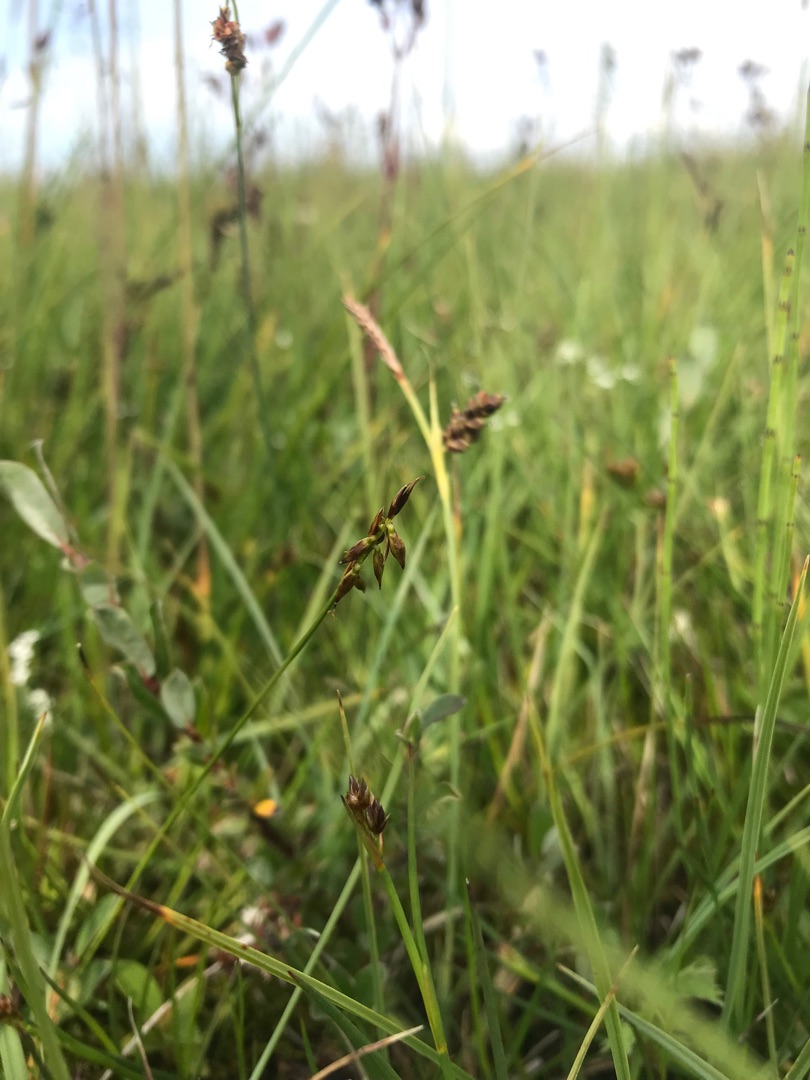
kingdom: Plantae
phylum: Tracheophyta
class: Liliopsida
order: Poales
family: Cyperaceae
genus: Carex
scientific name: Carex pulicaris
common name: Loppe-star
